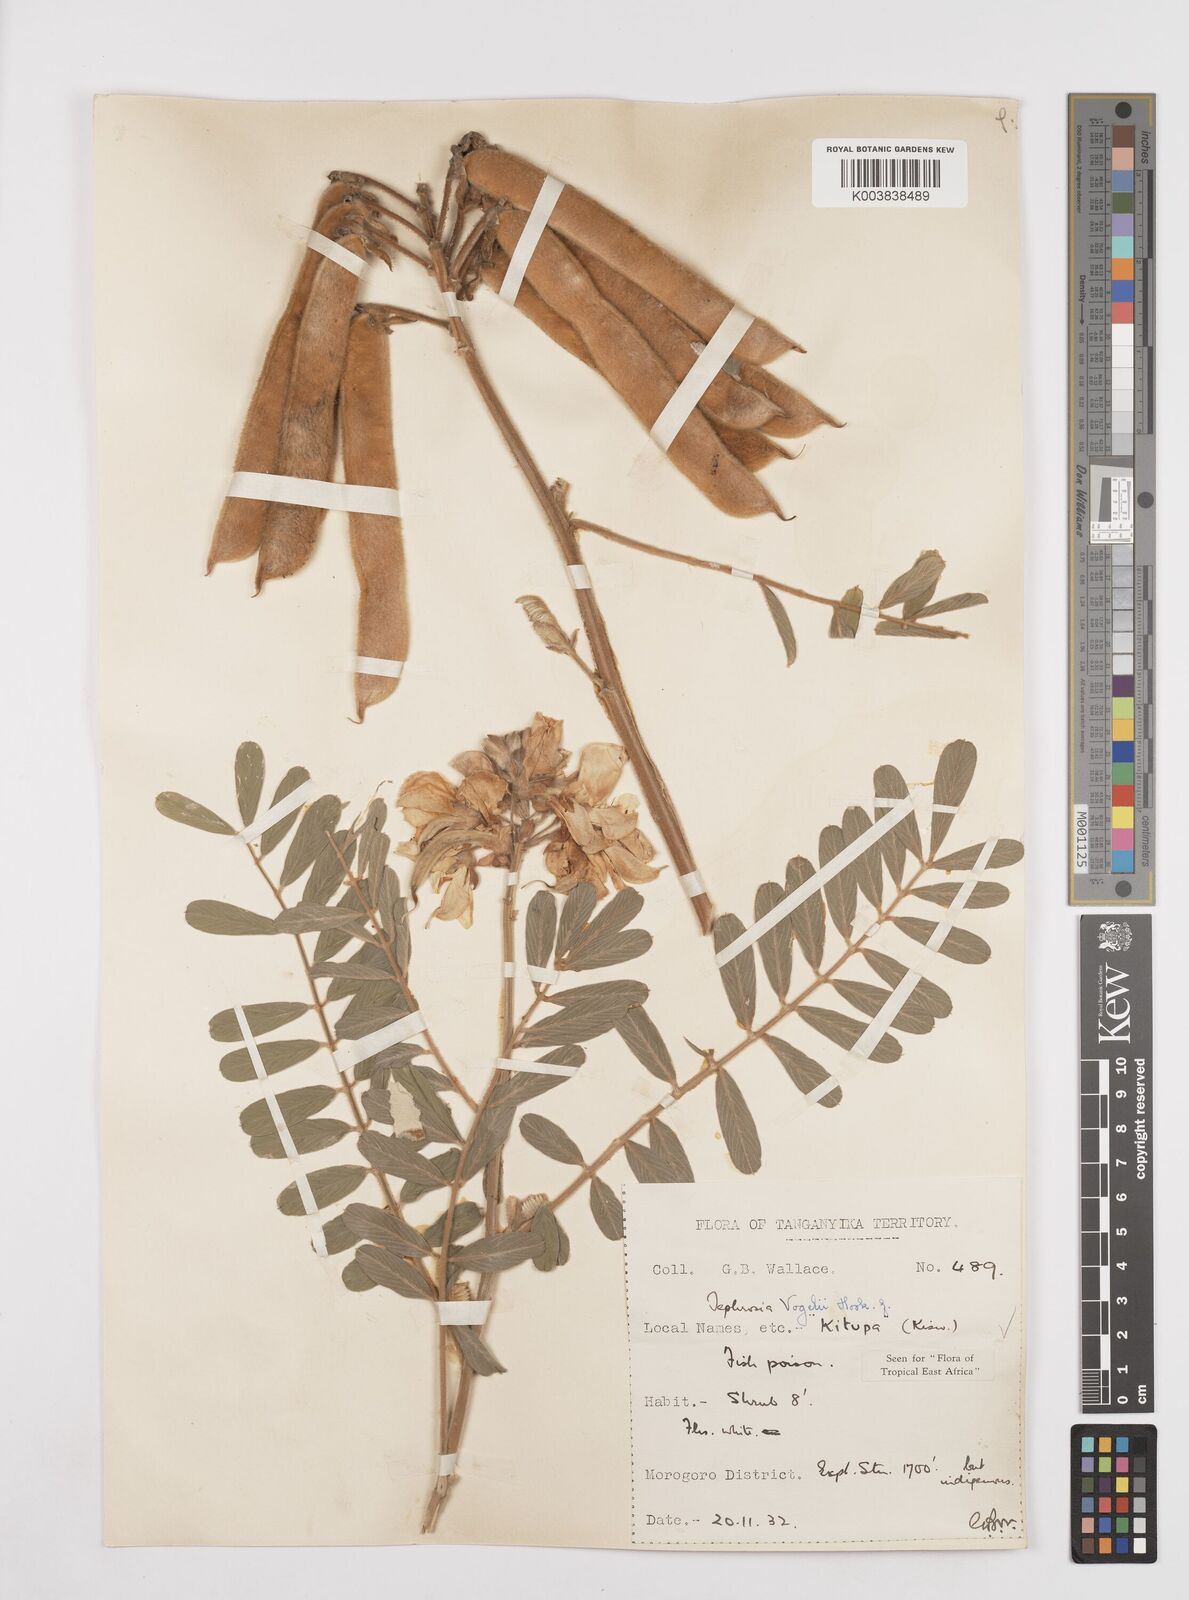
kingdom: Plantae
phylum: Tracheophyta
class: Magnoliopsida
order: Fabales
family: Fabaceae
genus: Tephrosia
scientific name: Tephrosia vogelii
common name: Vogel tephrosia
